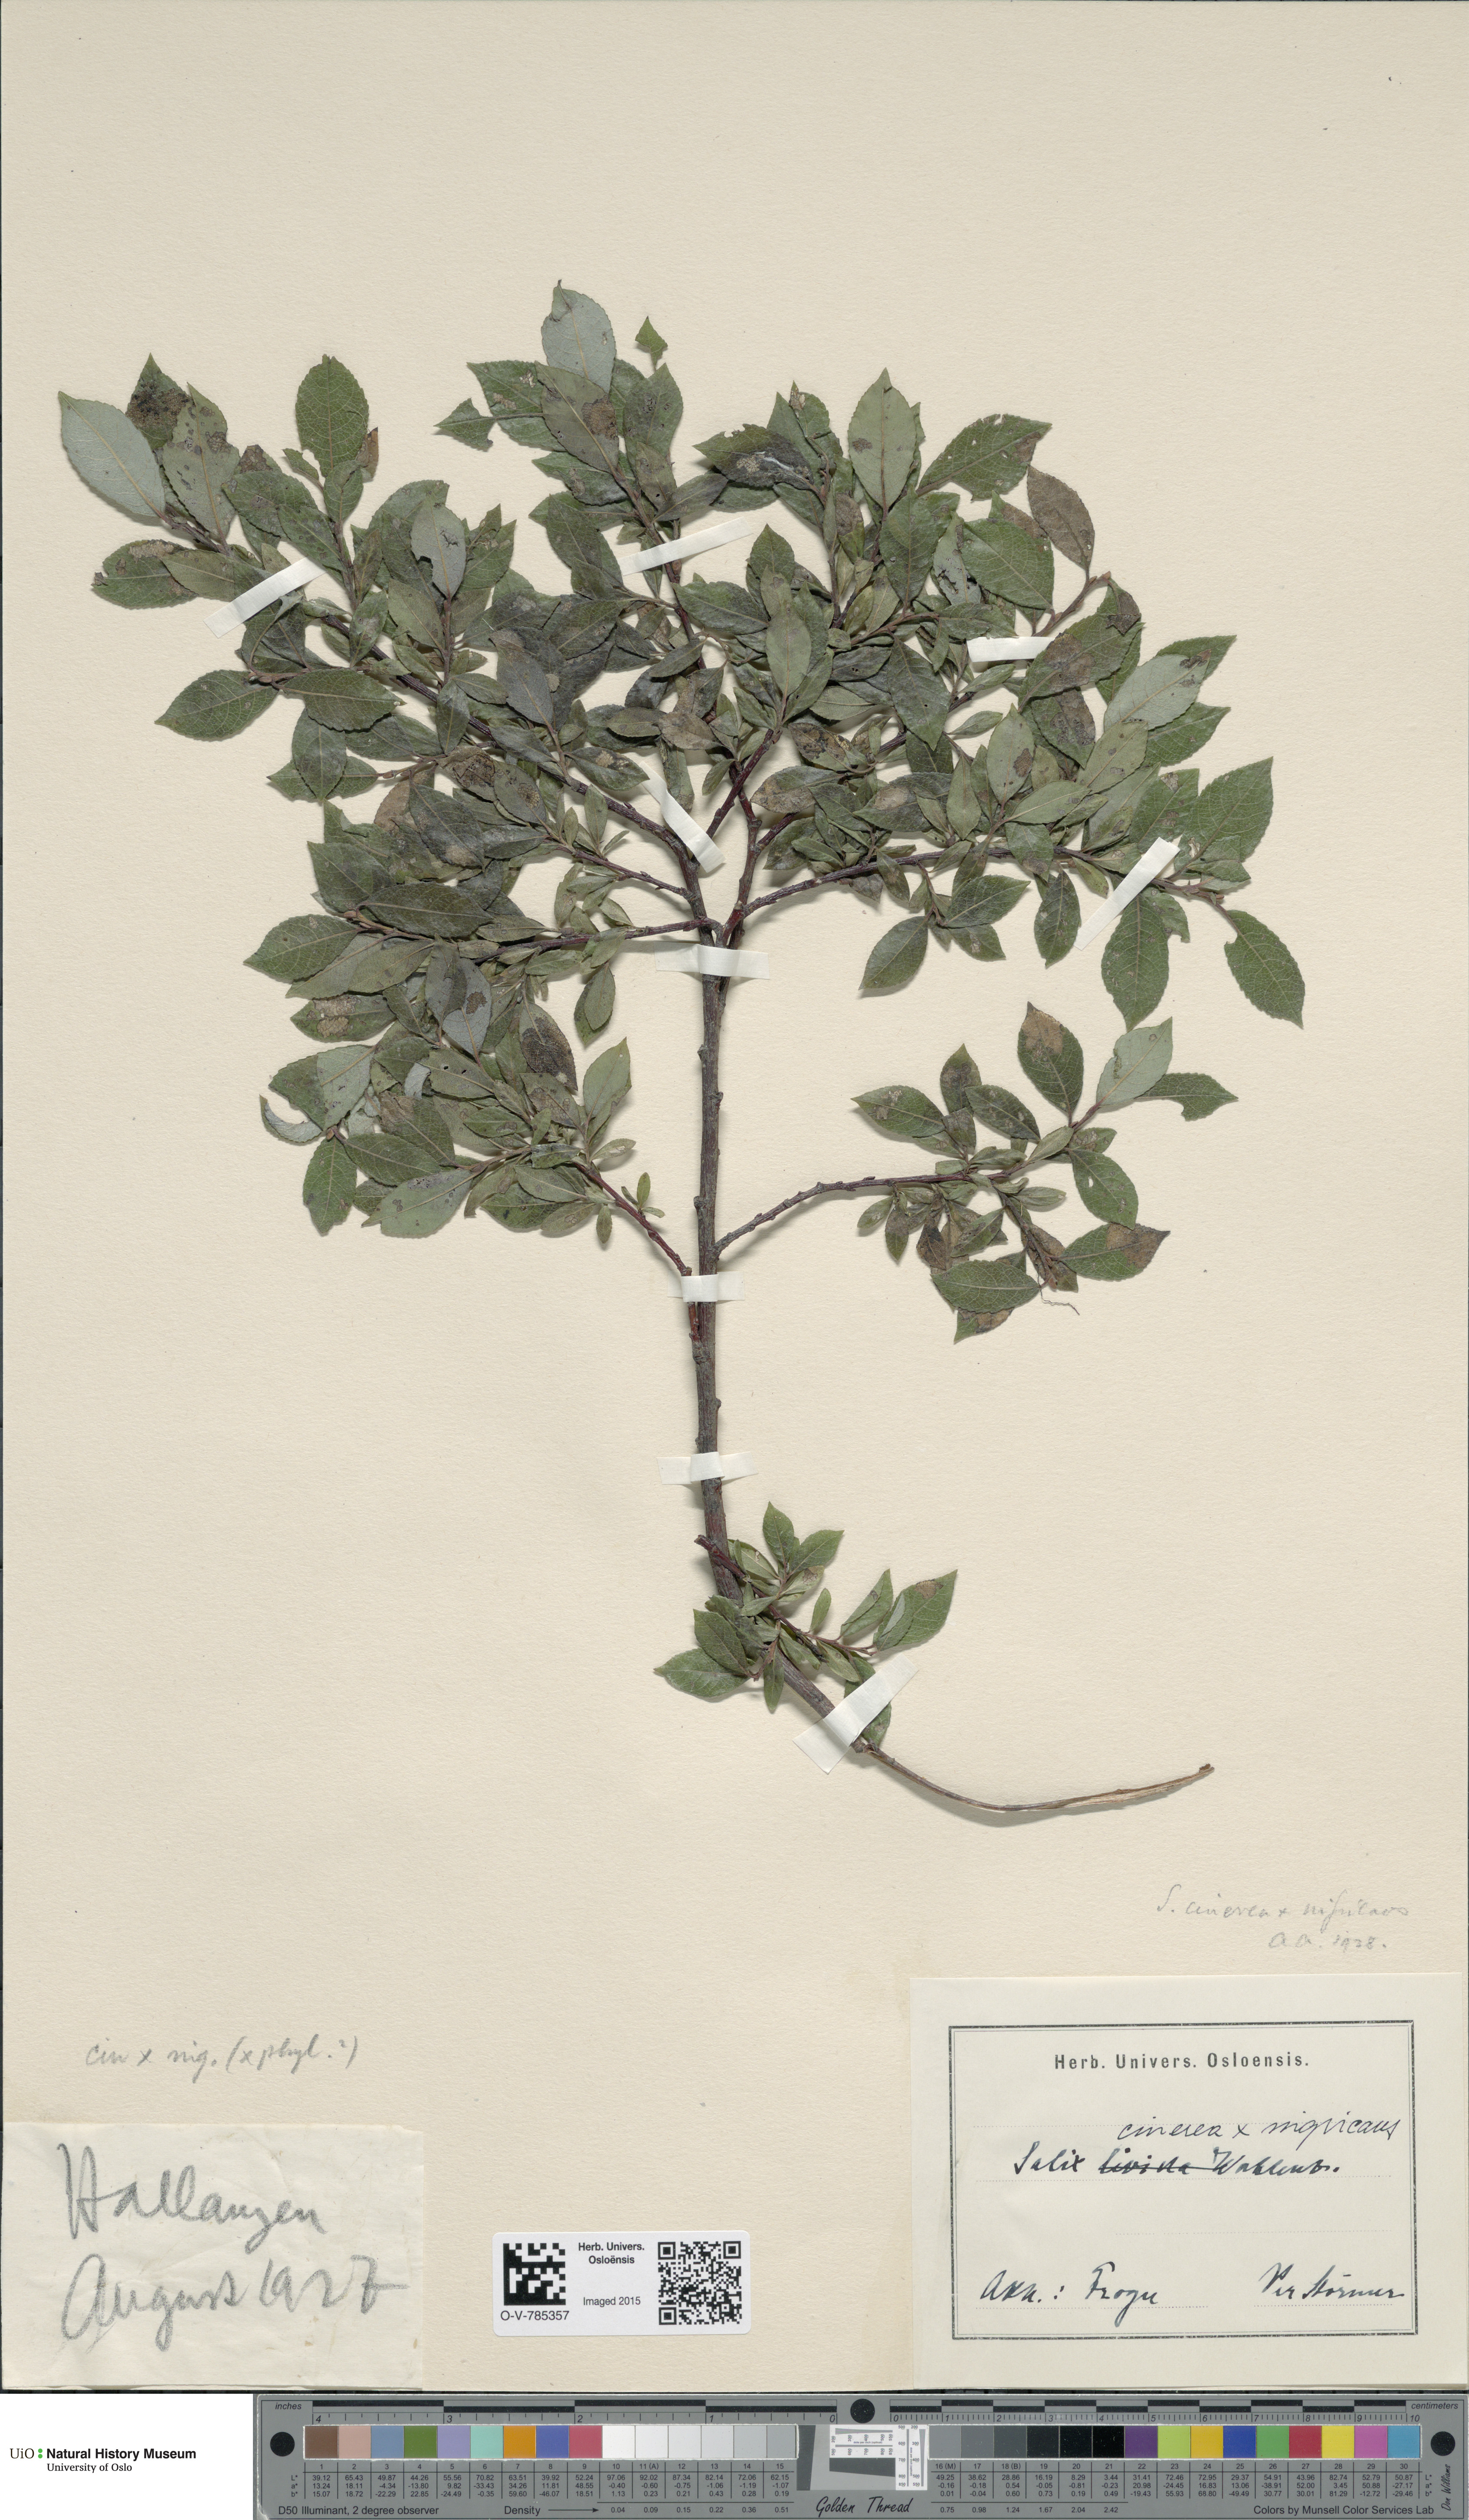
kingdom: Plantae
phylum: Tracheophyta
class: Magnoliopsida
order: Malpighiales
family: Salicaceae
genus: Salix
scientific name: Salix
